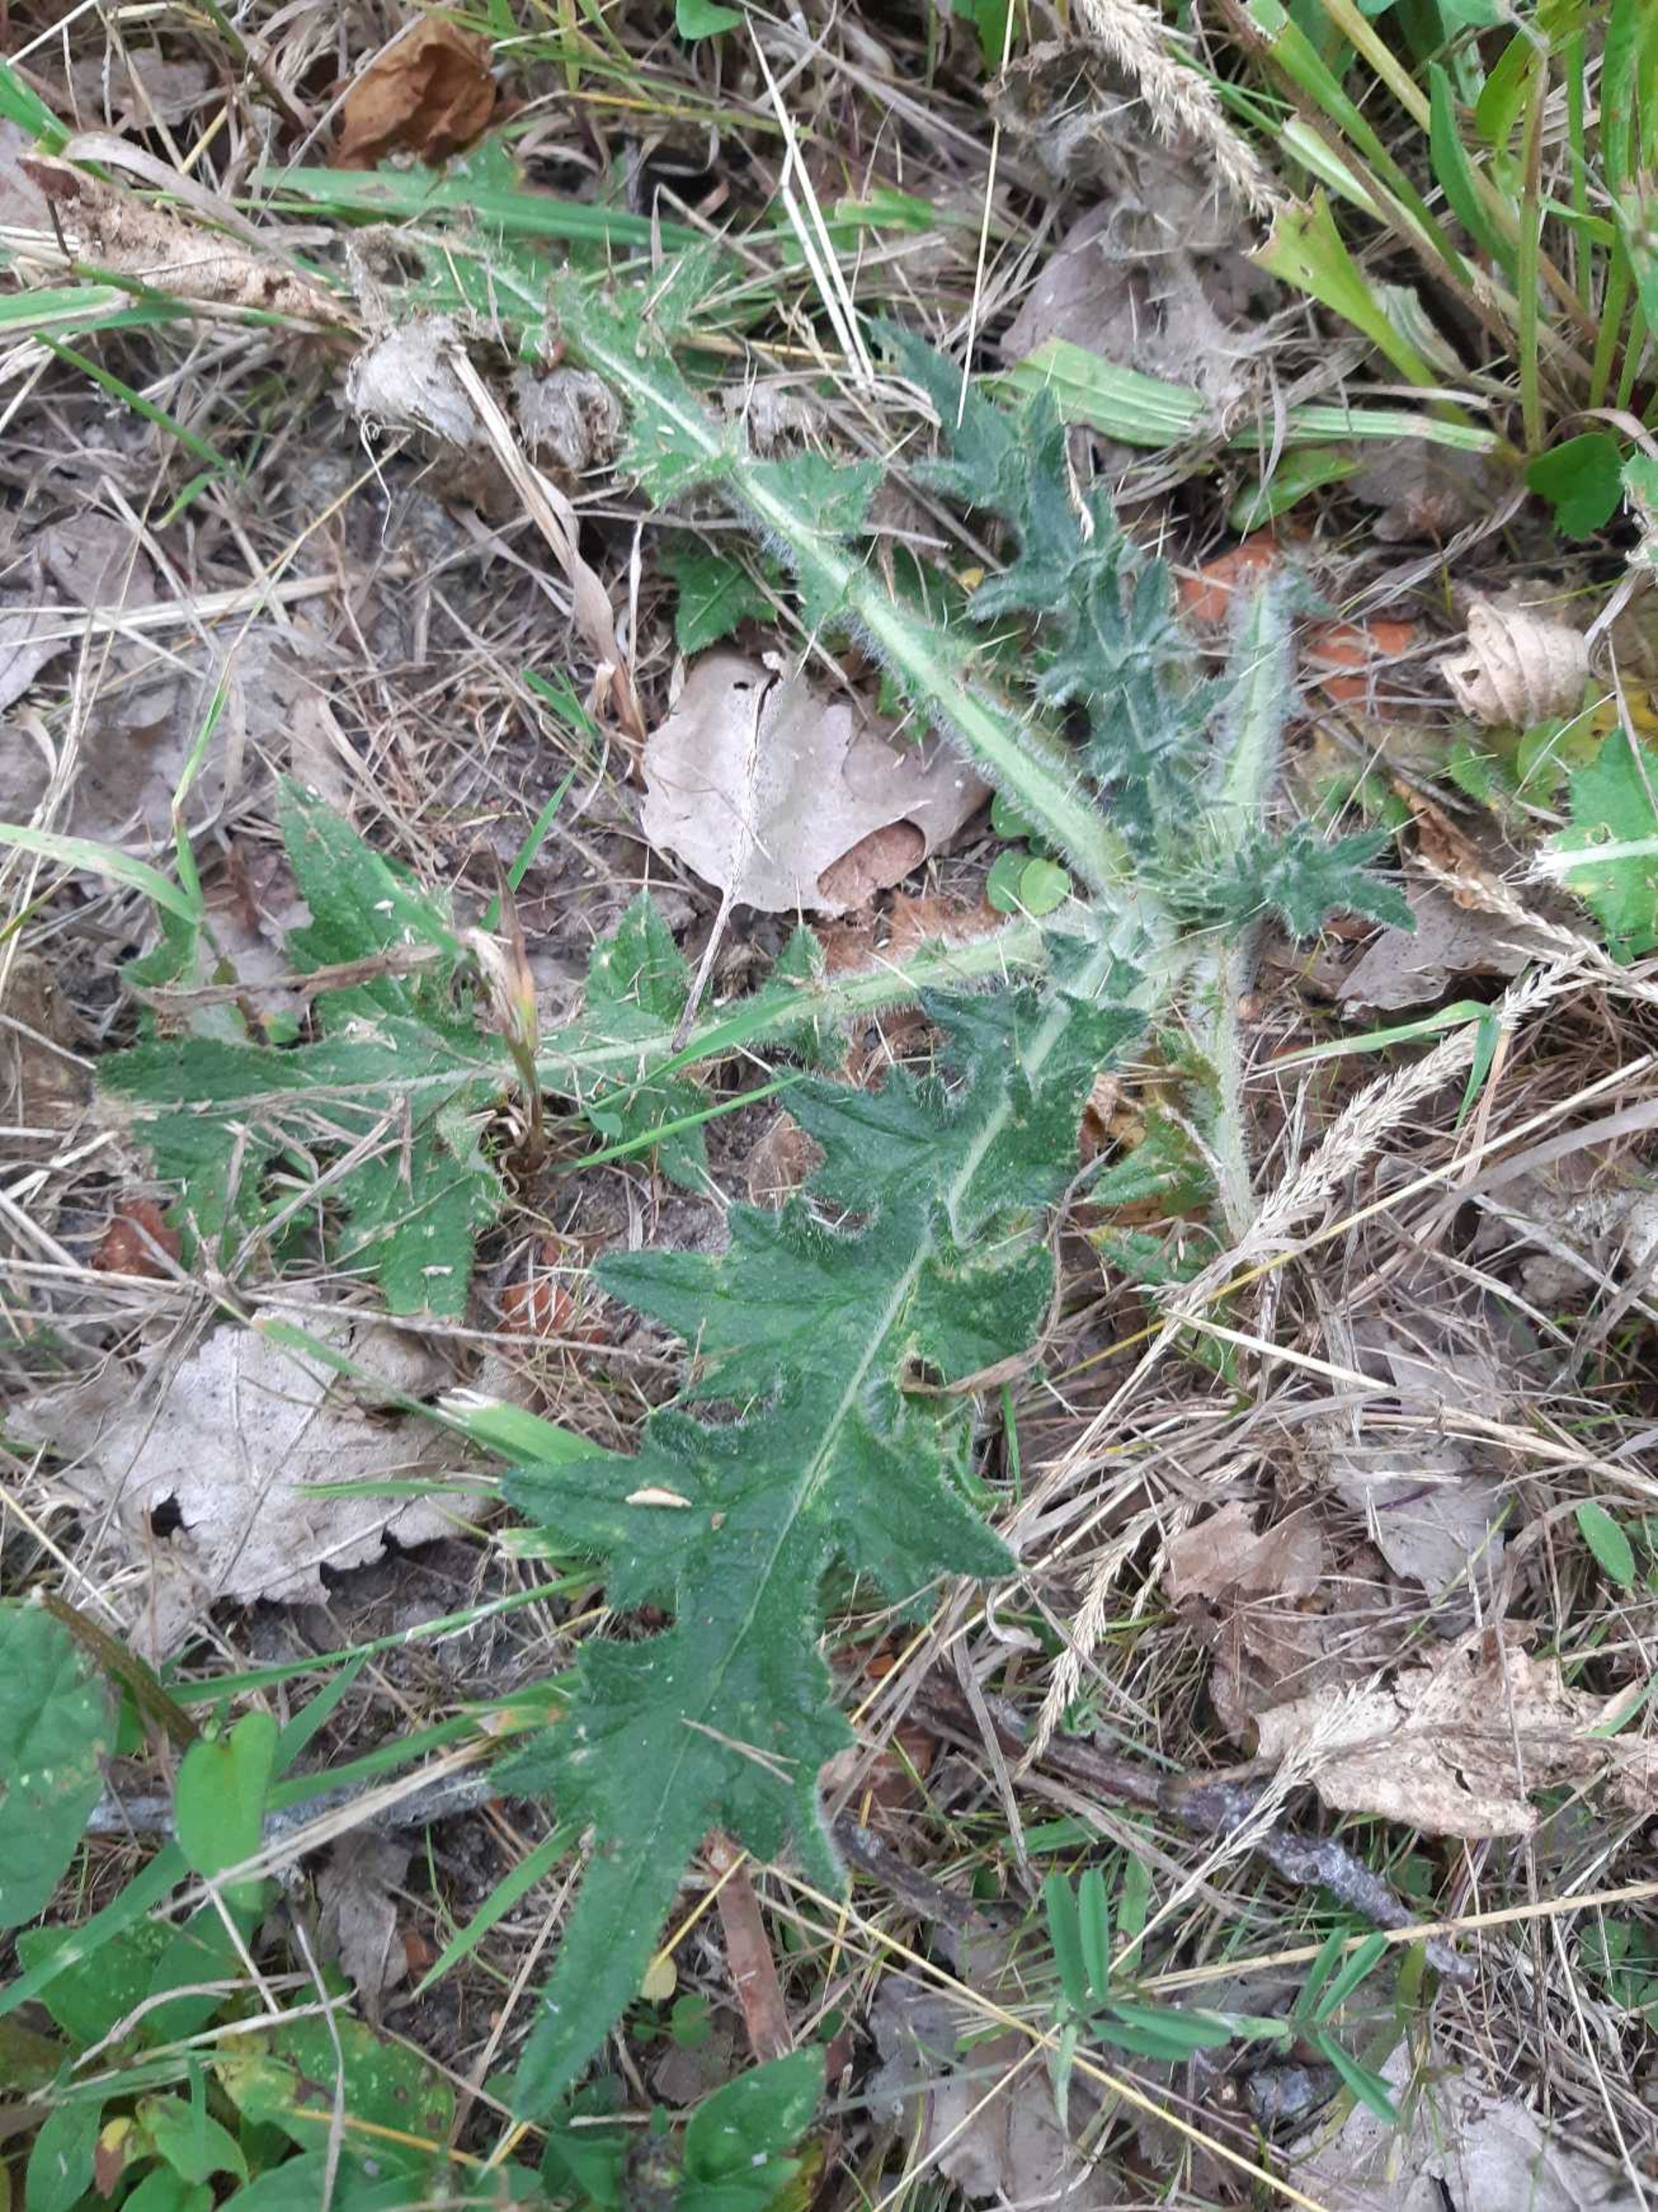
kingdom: Plantae
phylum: Tracheophyta
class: Magnoliopsida
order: Asterales
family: Asteraceae
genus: Cirsium
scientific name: Cirsium vulgare
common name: Horse-tidsel
